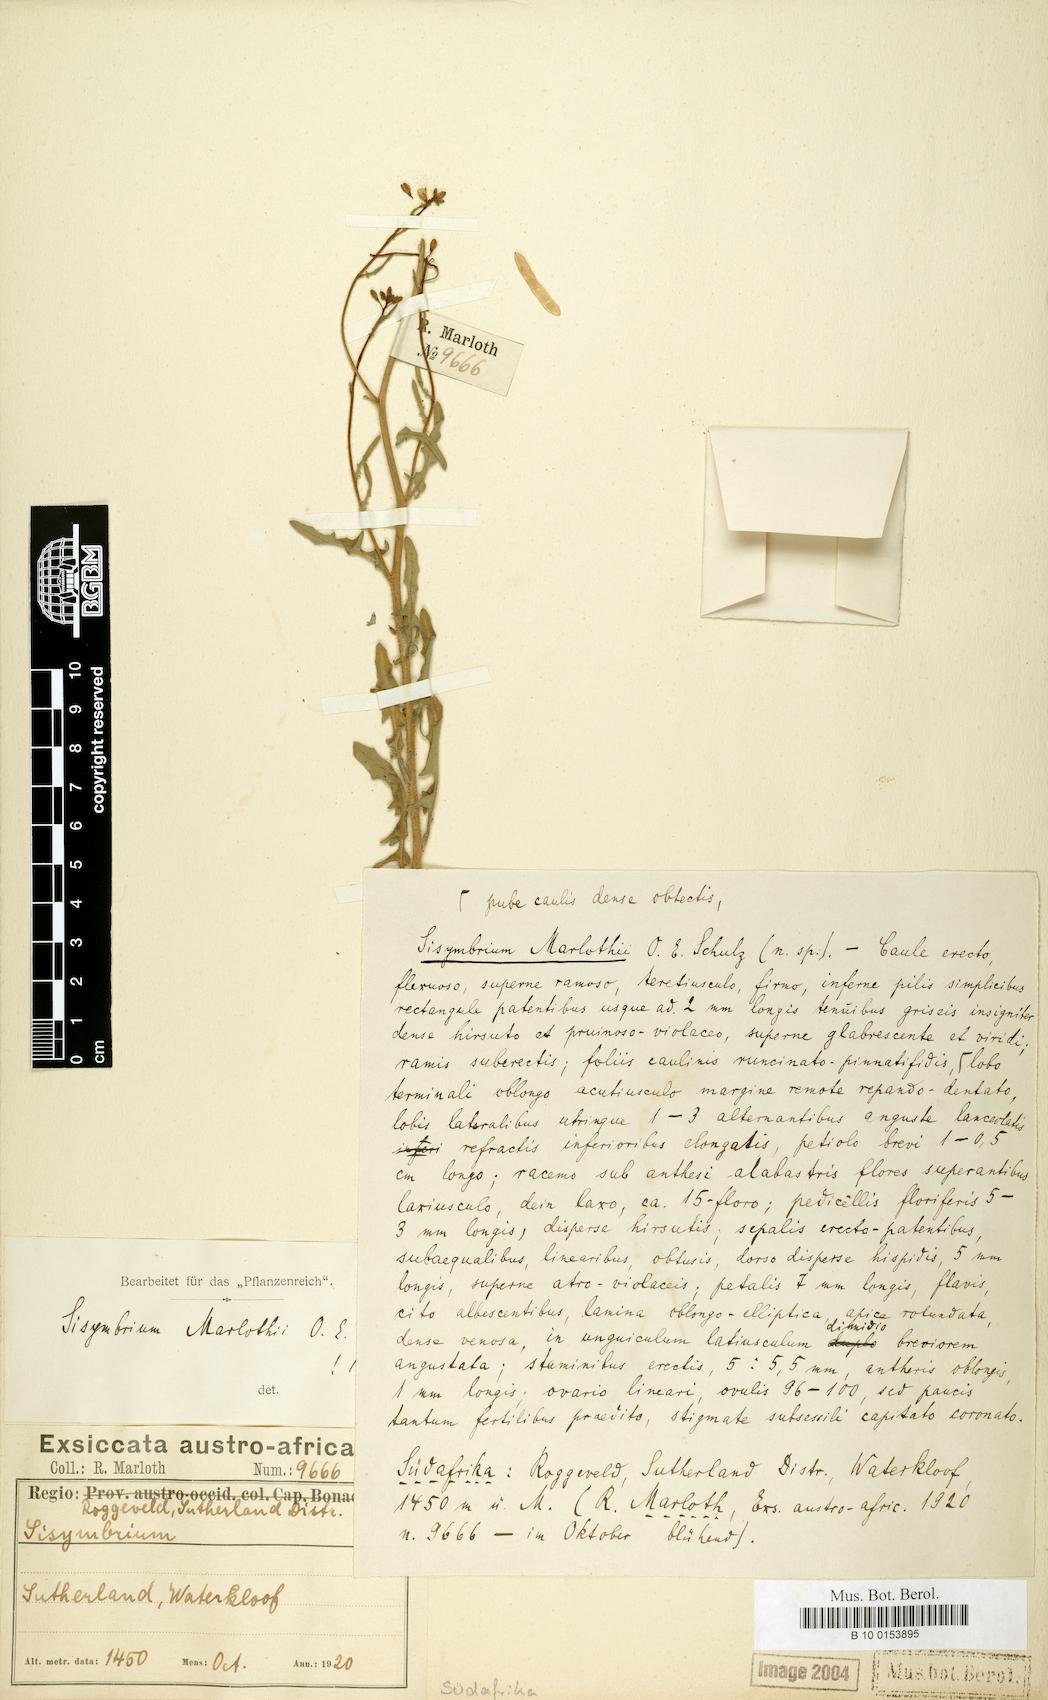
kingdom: Plantae
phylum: Tracheophyta
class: Magnoliopsida
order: Brassicales
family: Brassicaceae
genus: Sisymbrium
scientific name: Sisymbrium capense
